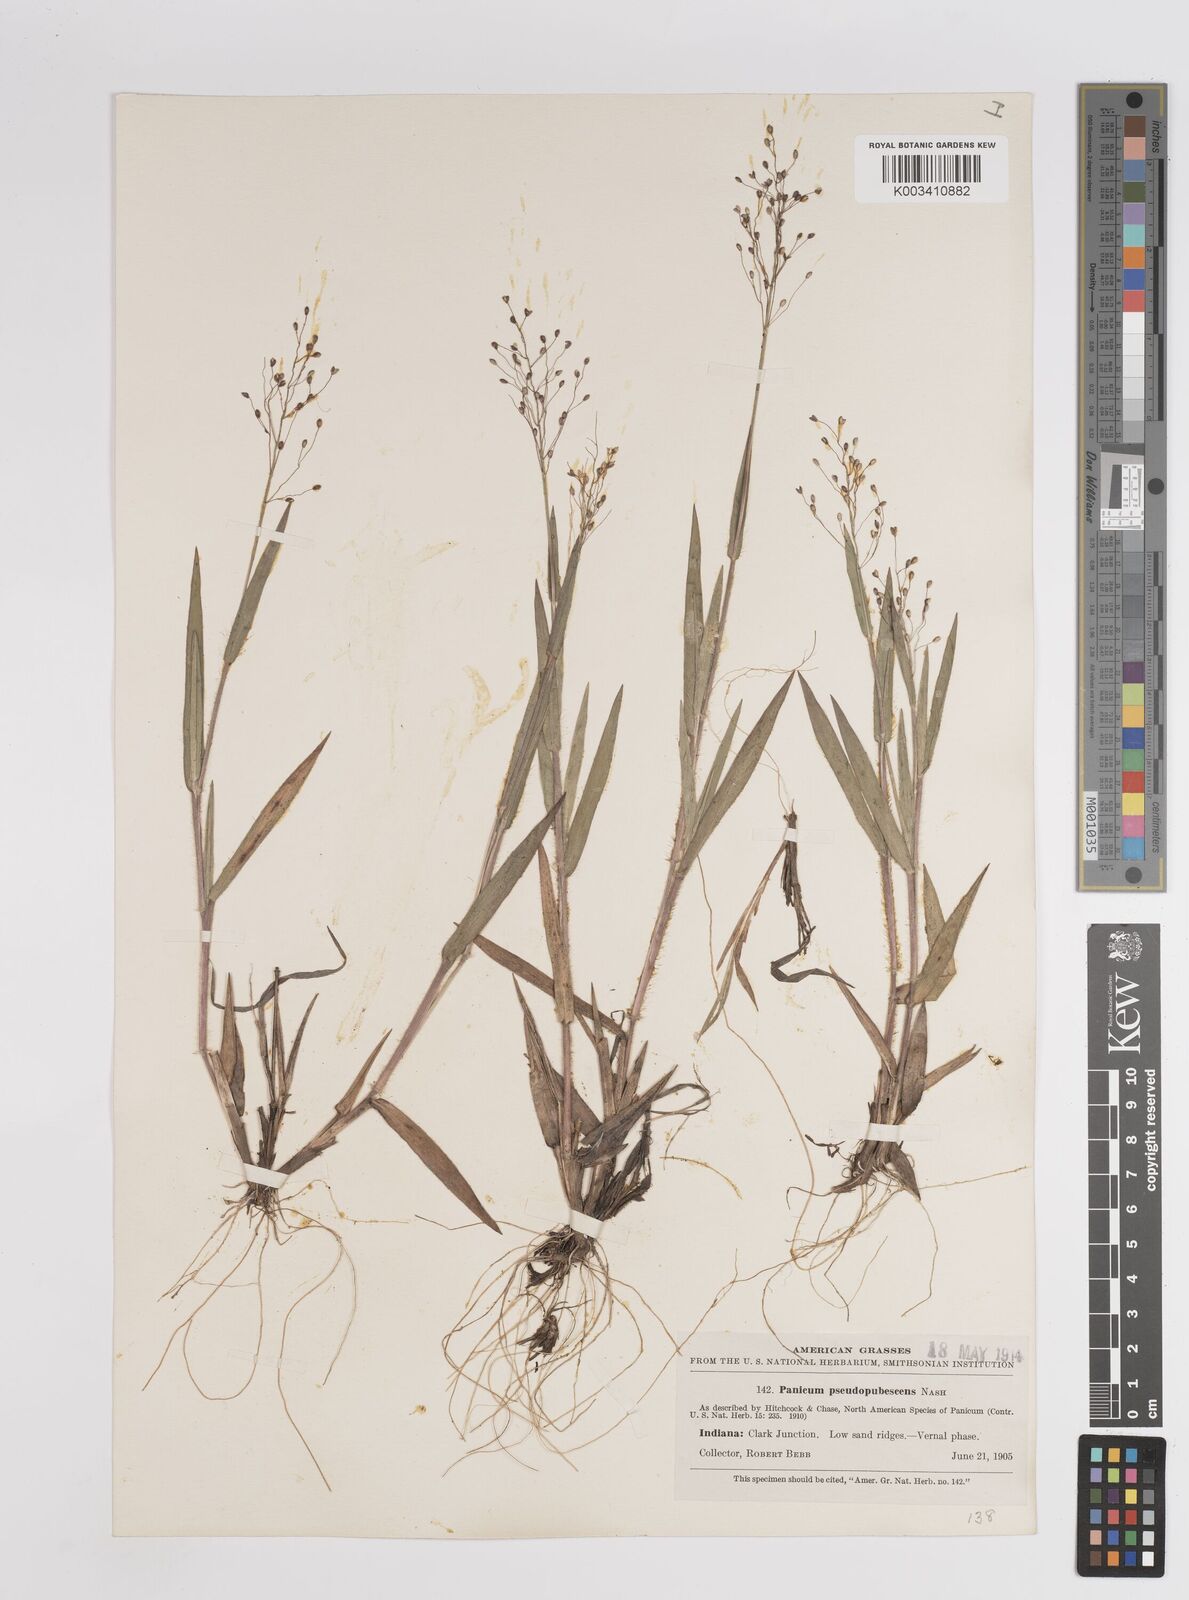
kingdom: Plantae
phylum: Tracheophyta
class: Liliopsida
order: Poales
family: Poaceae
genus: Dichanthelium
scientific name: Dichanthelium villosissimum
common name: White-haired panicgrass
